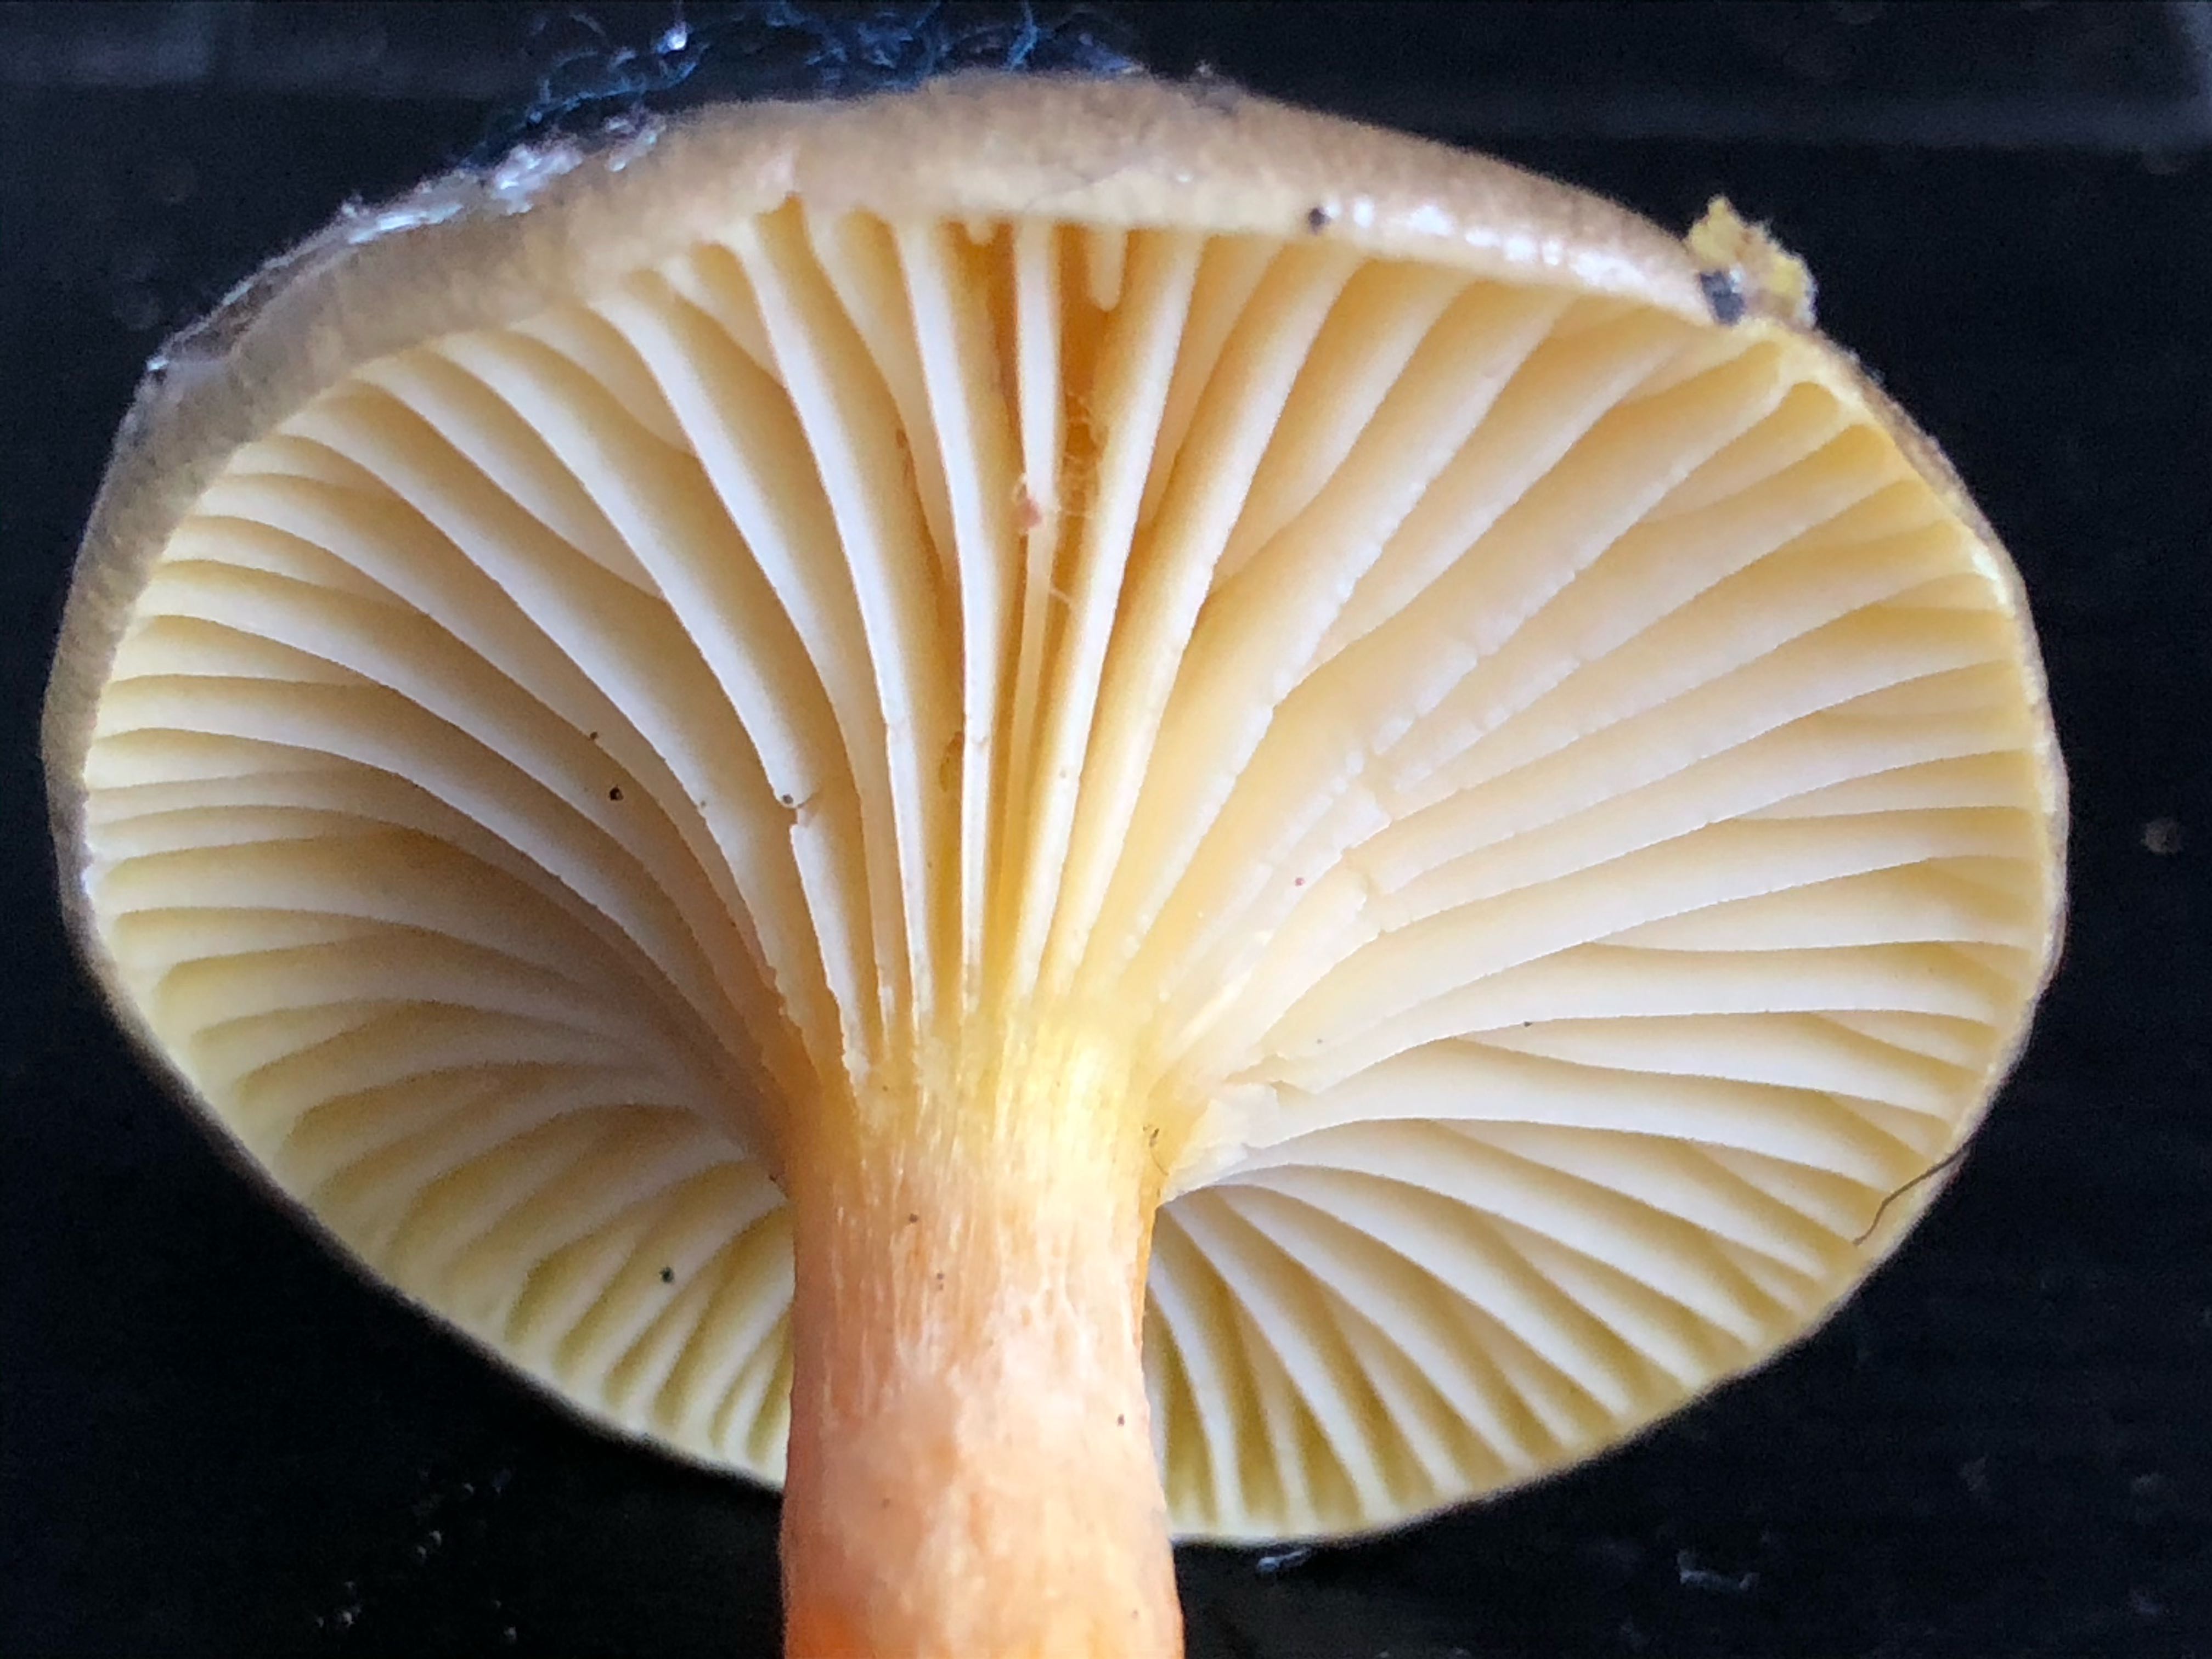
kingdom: Fungi
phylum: Basidiomycota
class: Agaricomycetes
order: Agaricales
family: Hygrophoraceae
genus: Hygrophorus
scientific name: Hygrophorus hypothejus
